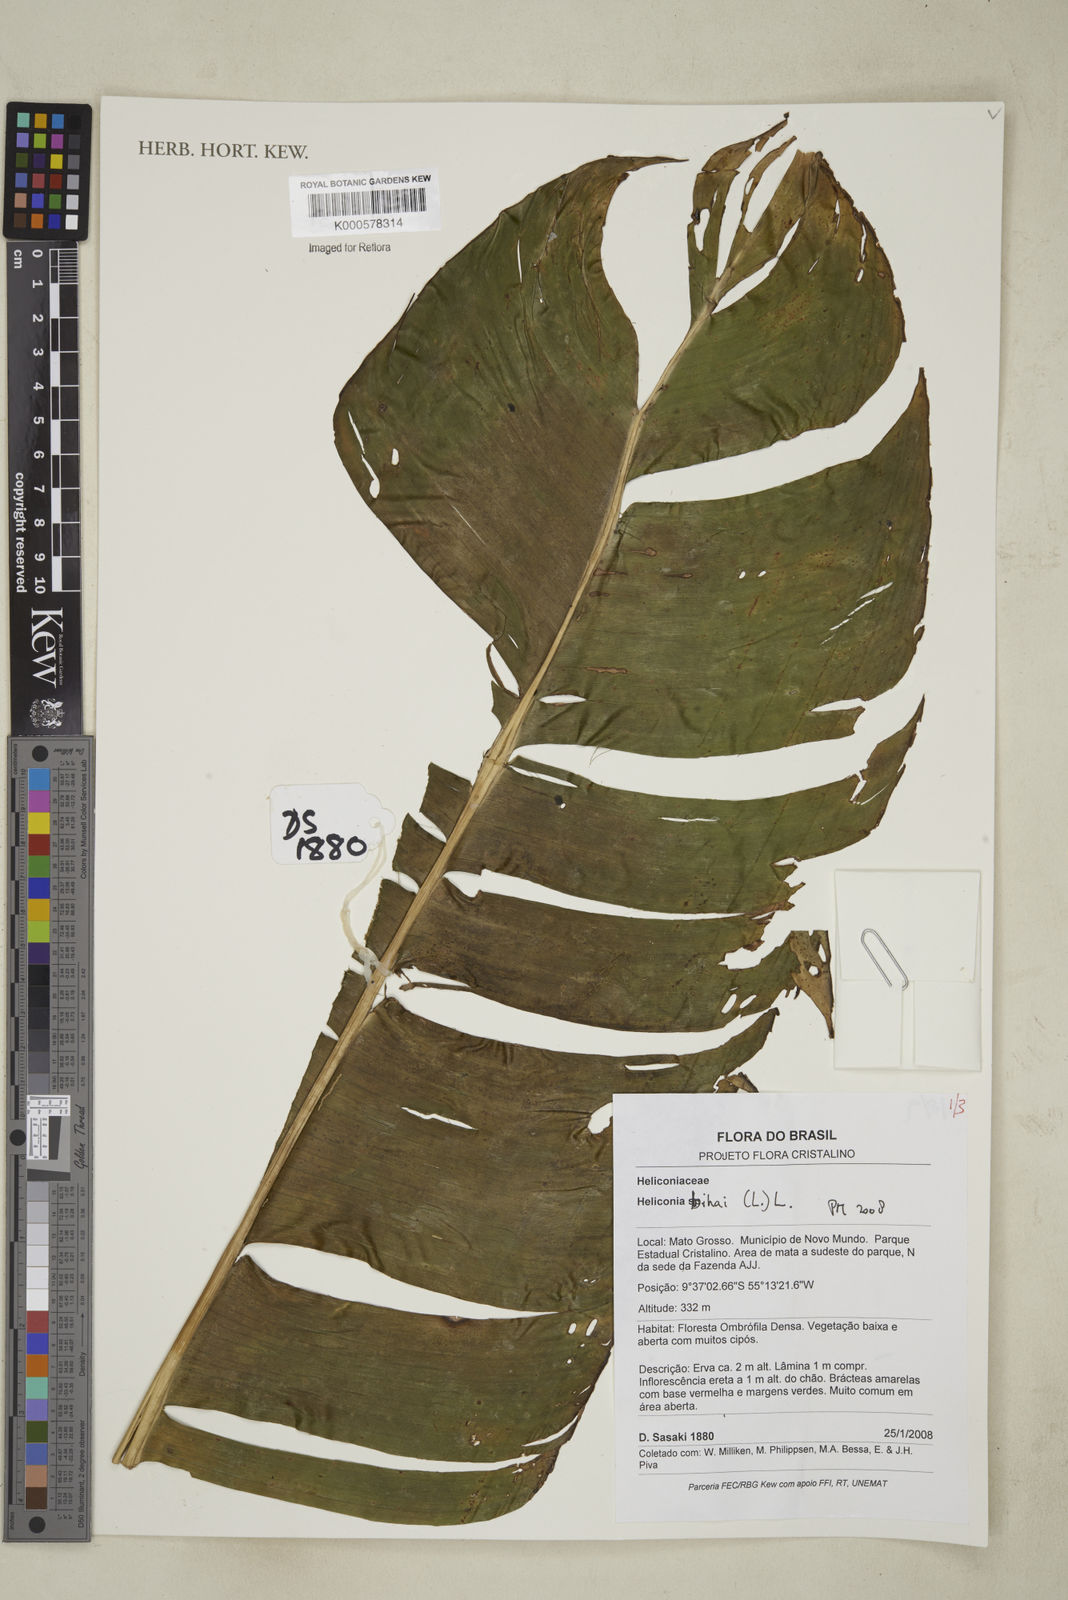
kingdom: Plantae
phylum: Tracheophyta
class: Liliopsida
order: Zingiberales
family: Heliconiaceae
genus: Heliconia
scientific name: Heliconia bihai
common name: Macaw flower
